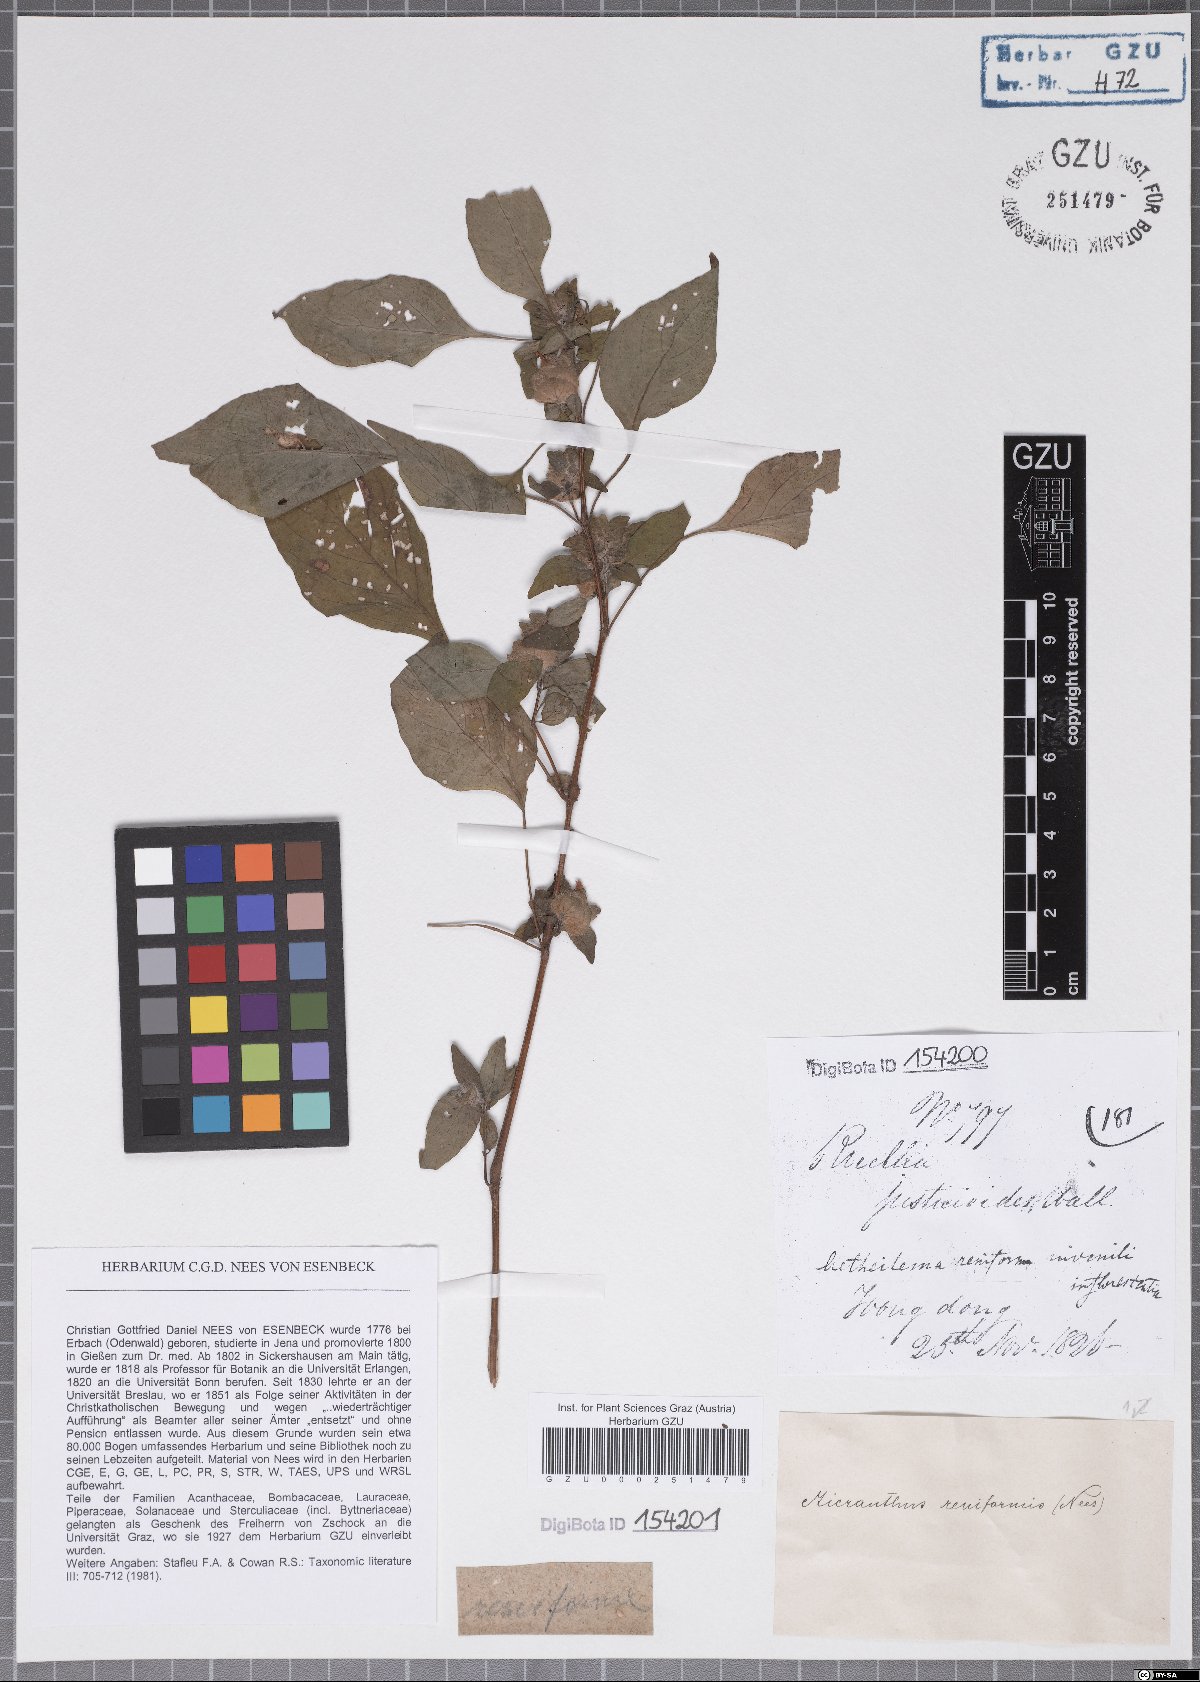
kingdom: Plantae
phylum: Tracheophyta
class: Magnoliopsida
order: Lamiales
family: Acanthaceae
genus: Phaulopsis
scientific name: Phaulopsis dorsiflora
